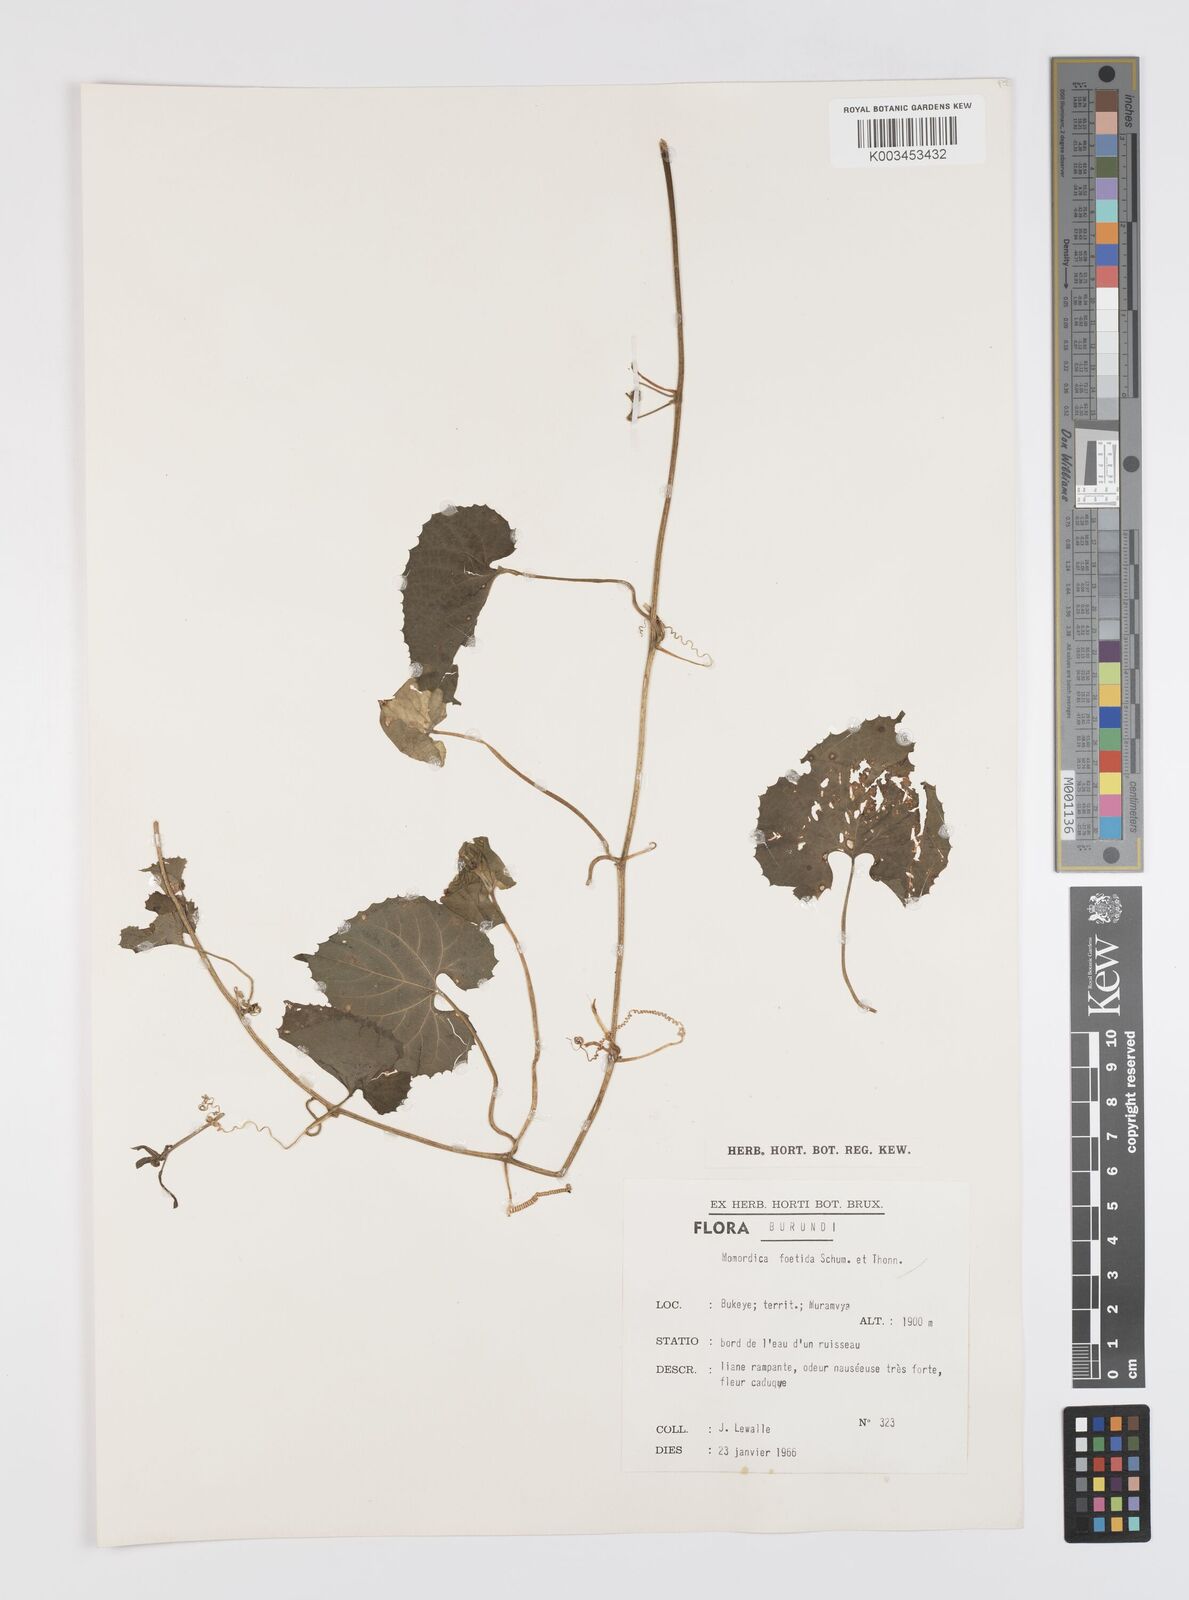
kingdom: Plantae
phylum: Tracheophyta
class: Magnoliopsida
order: Cucurbitales
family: Cucurbitaceae
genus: Momordica
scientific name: Momordica foetida
